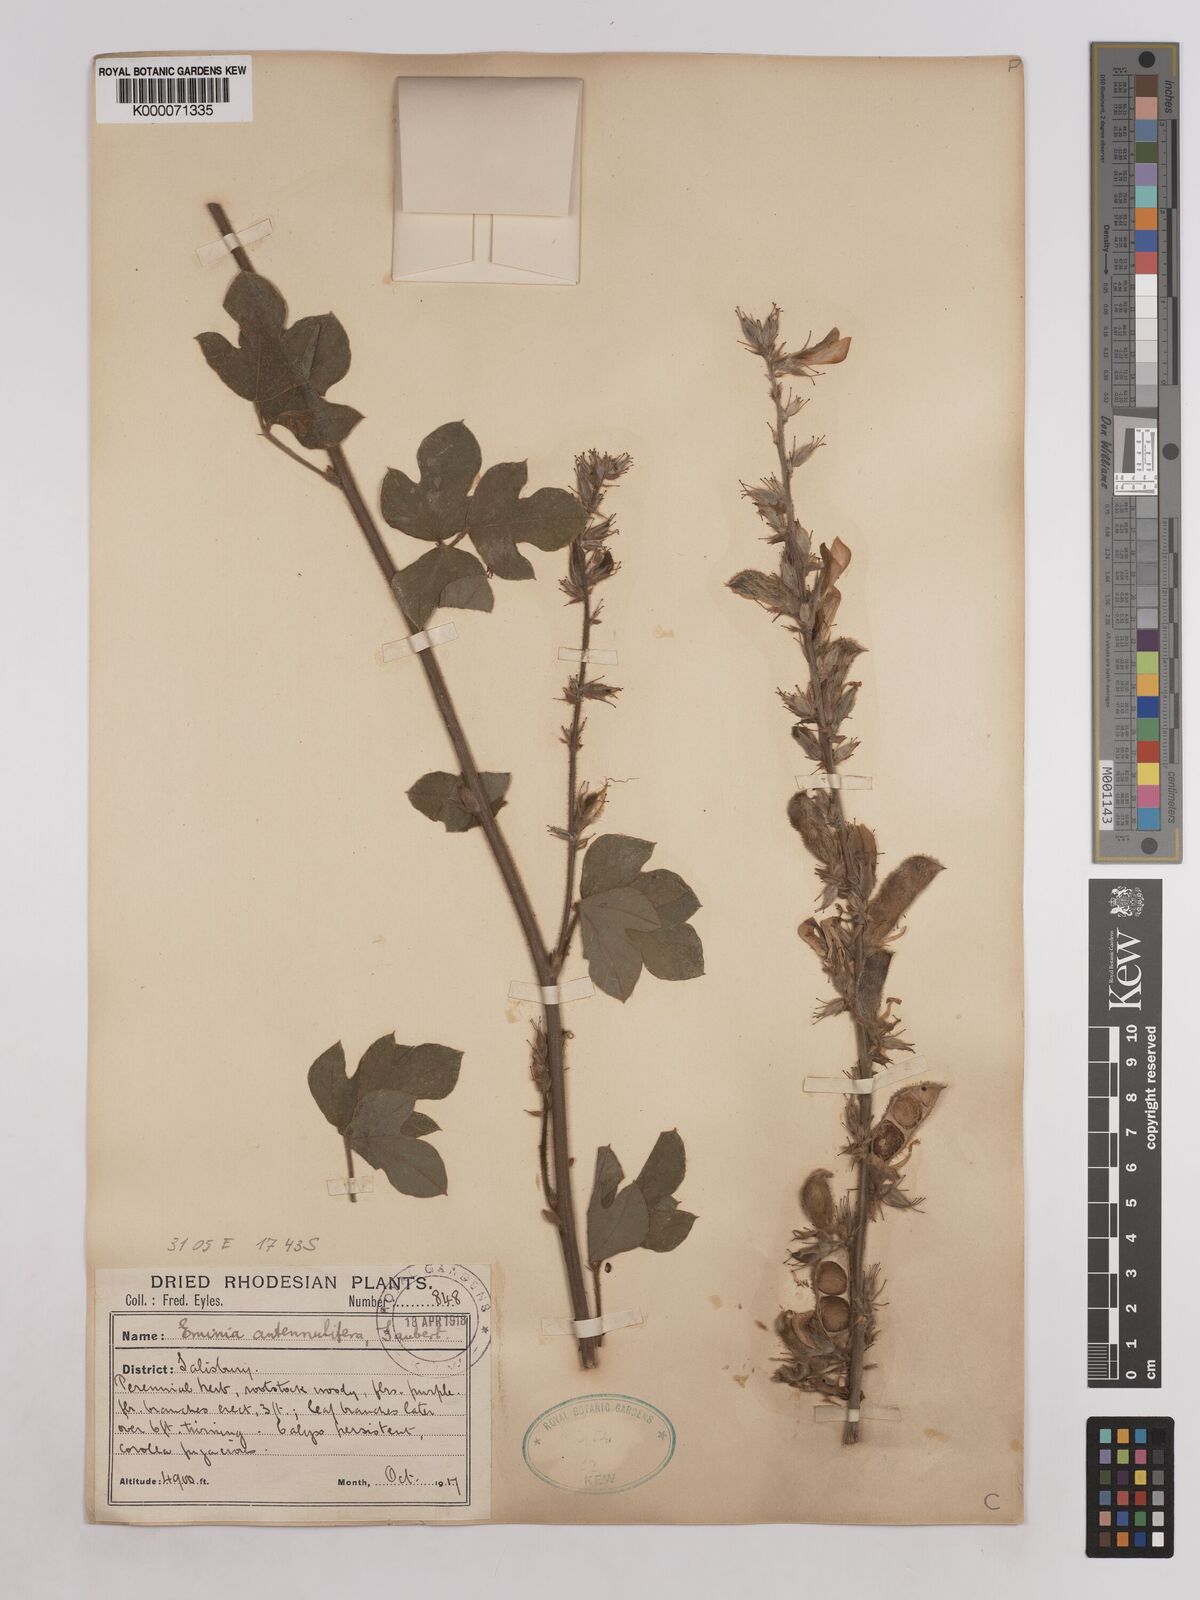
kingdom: Plantae
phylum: Tracheophyta
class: Magnoliopsida
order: Fabales
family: Fabaceae
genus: Eminia
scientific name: Eminia antennulifera
